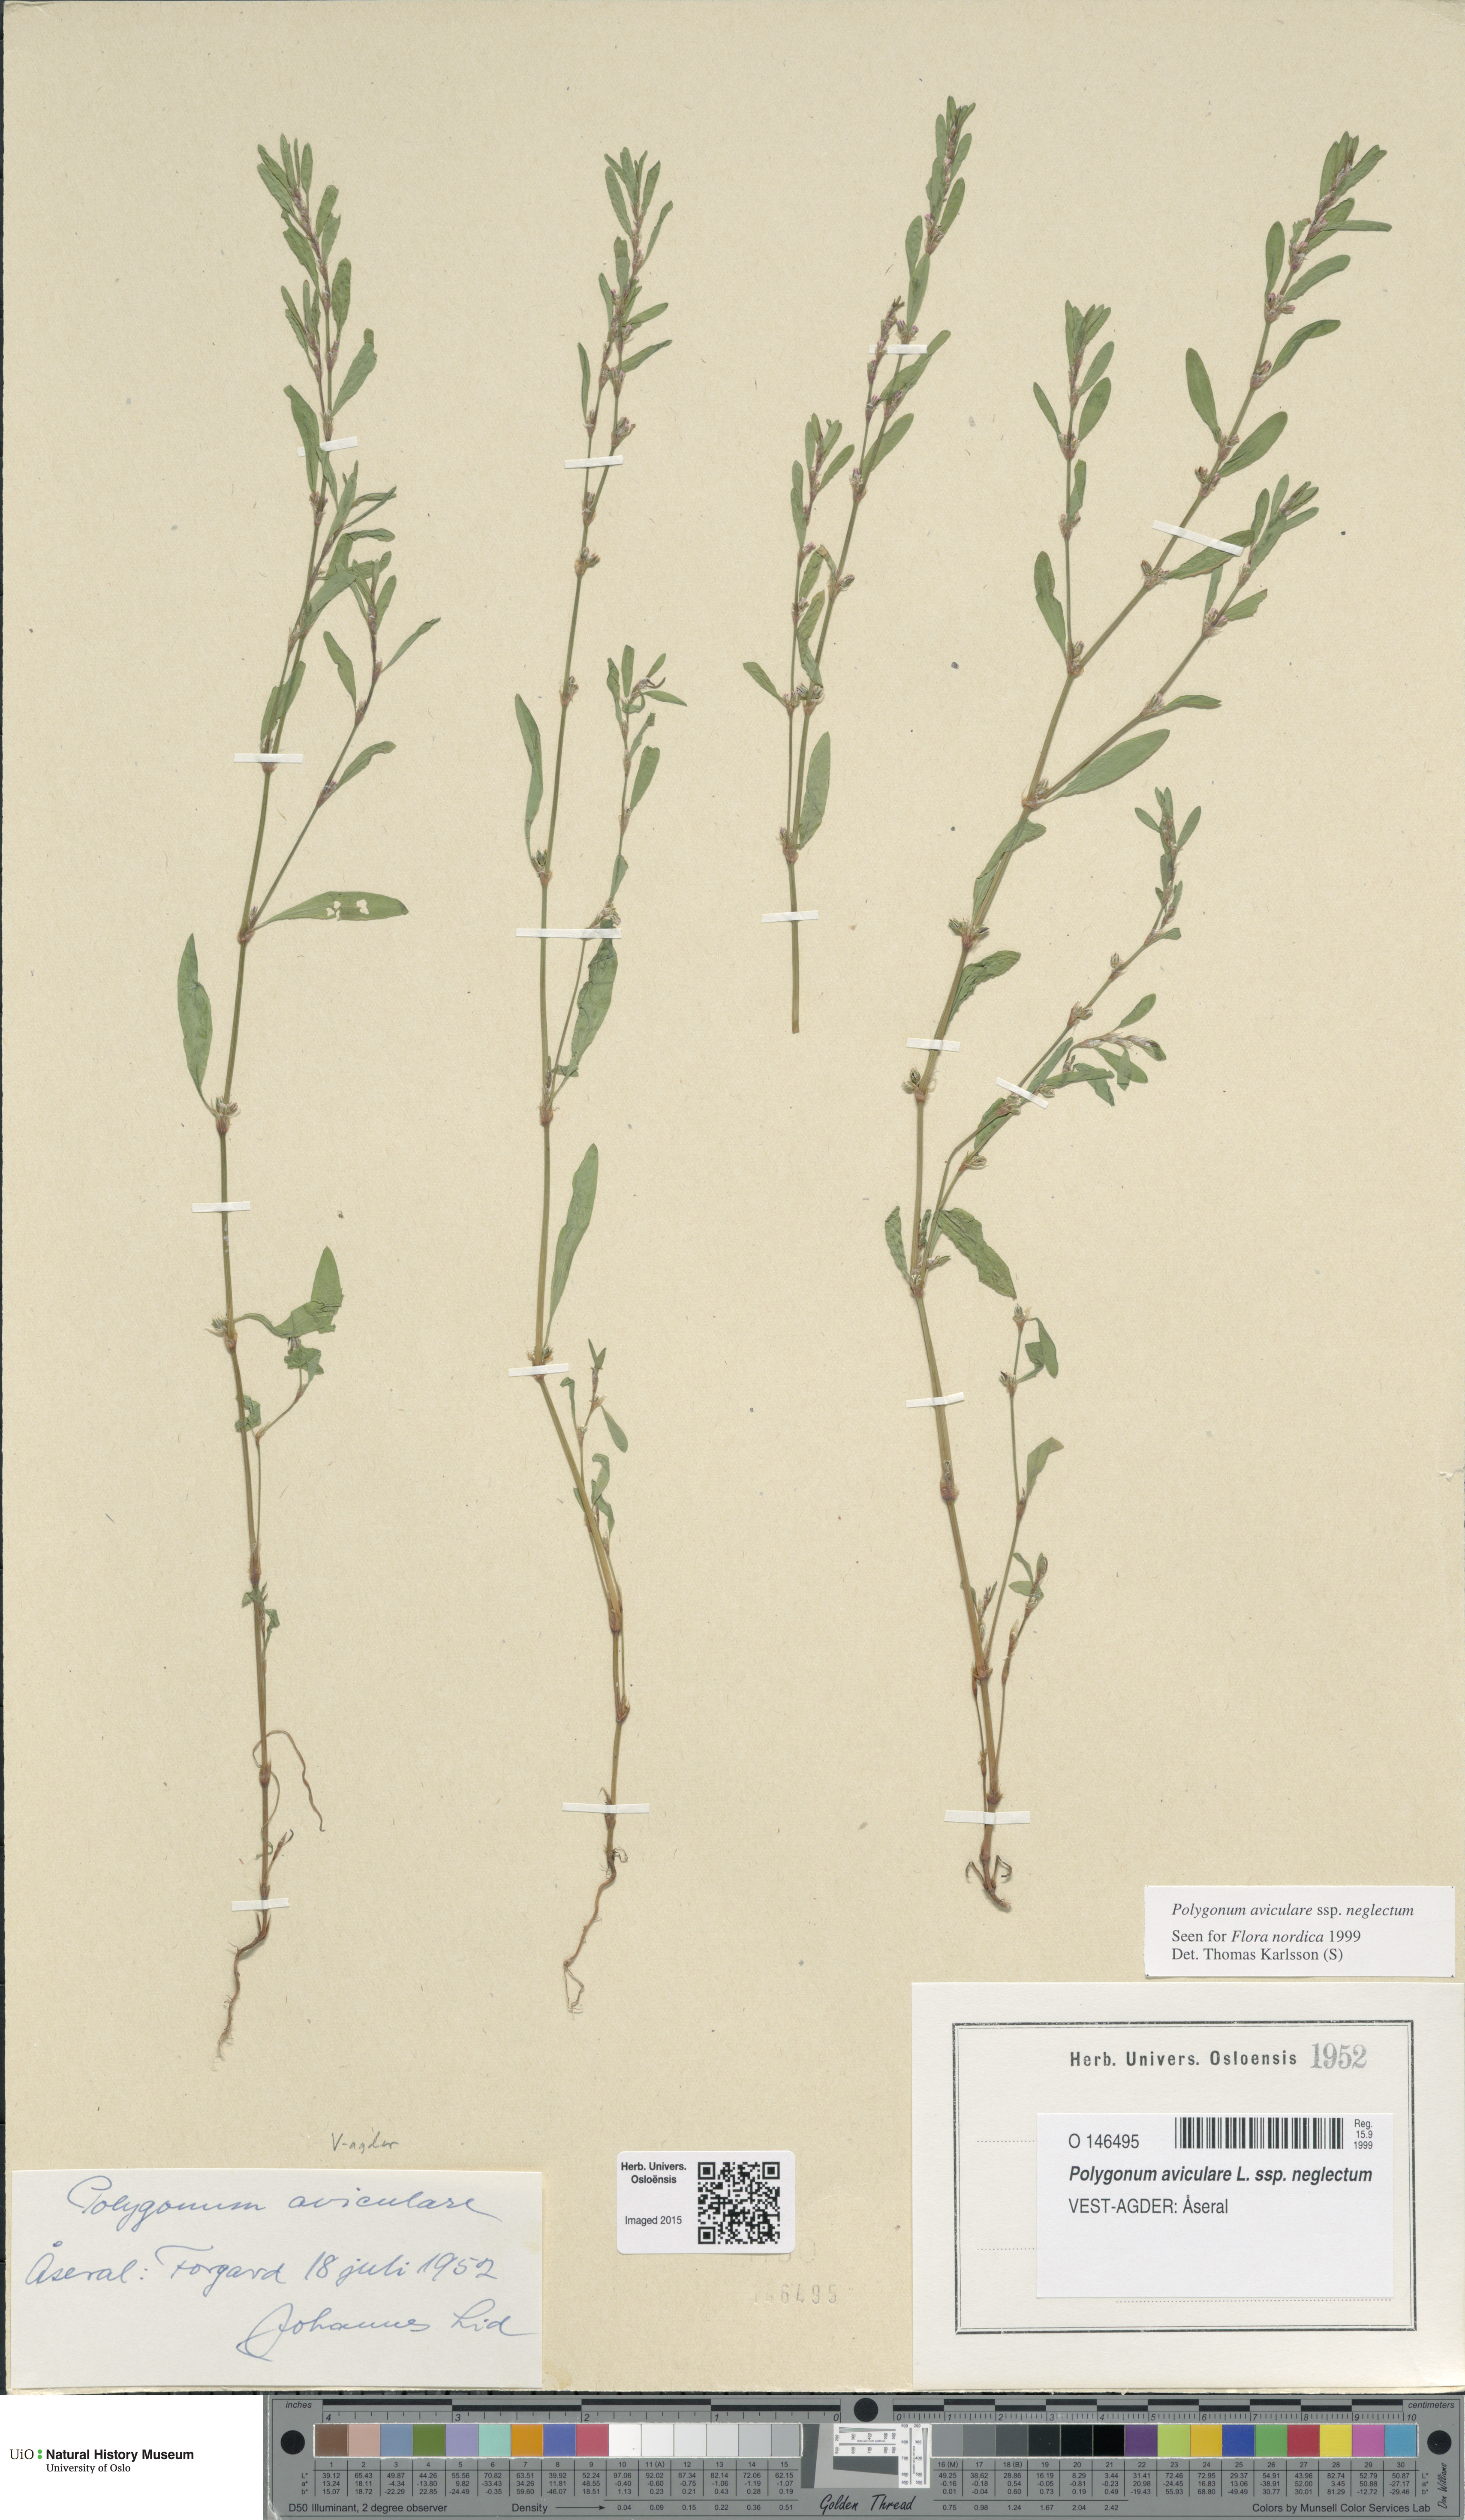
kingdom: Plantae
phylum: Tracheophyta
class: Magnoliopsida
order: Caryophyllales
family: Polygonaceae
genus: Polygonum
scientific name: Polygonum aviculare
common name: Prostrate knotweed
